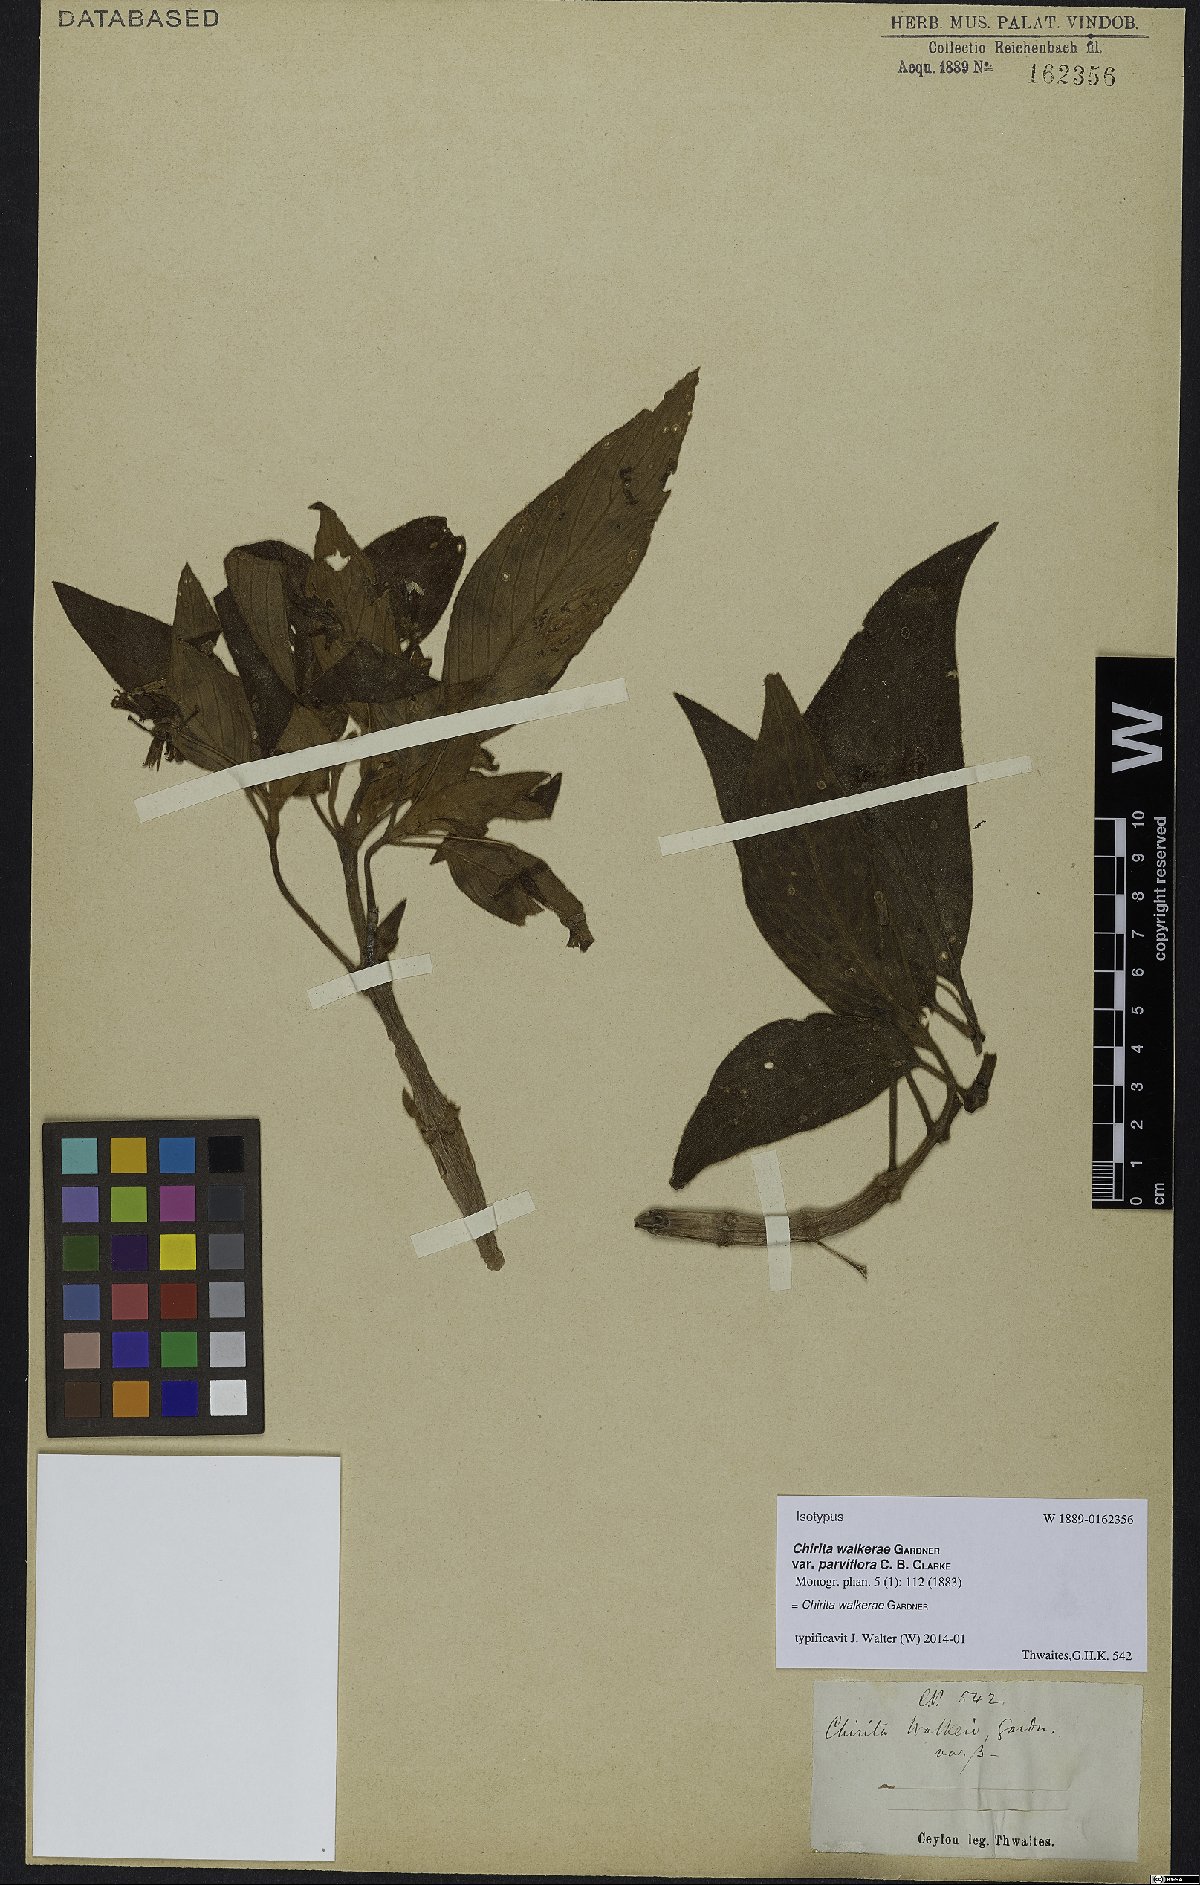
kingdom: Plantae
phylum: Tracheophyta
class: Magnoliopsida
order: Lamiales
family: Gesneriaceae
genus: Henckelia
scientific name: Henckelia walkerae
